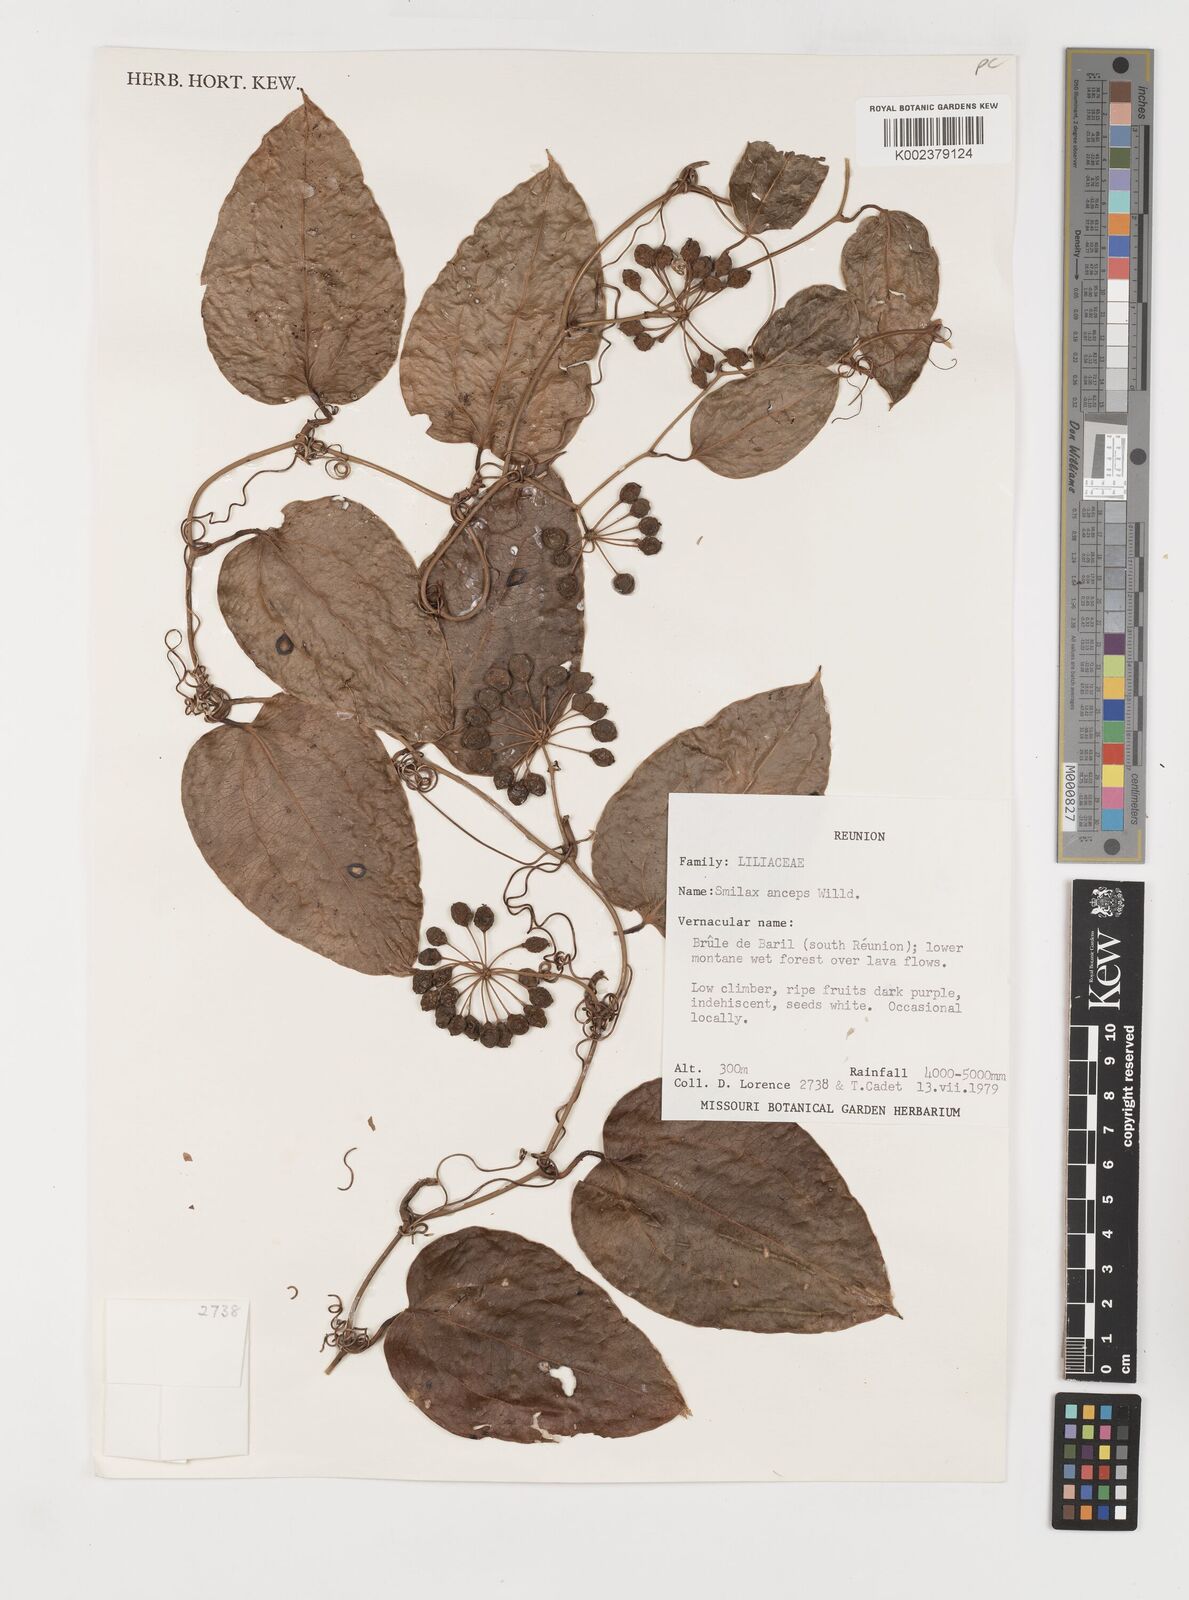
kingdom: Plantae
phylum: Tracheophyta
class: Liliopsida
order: Liliales
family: Smilacaceae
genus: Smilax
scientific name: Smilax anceps
